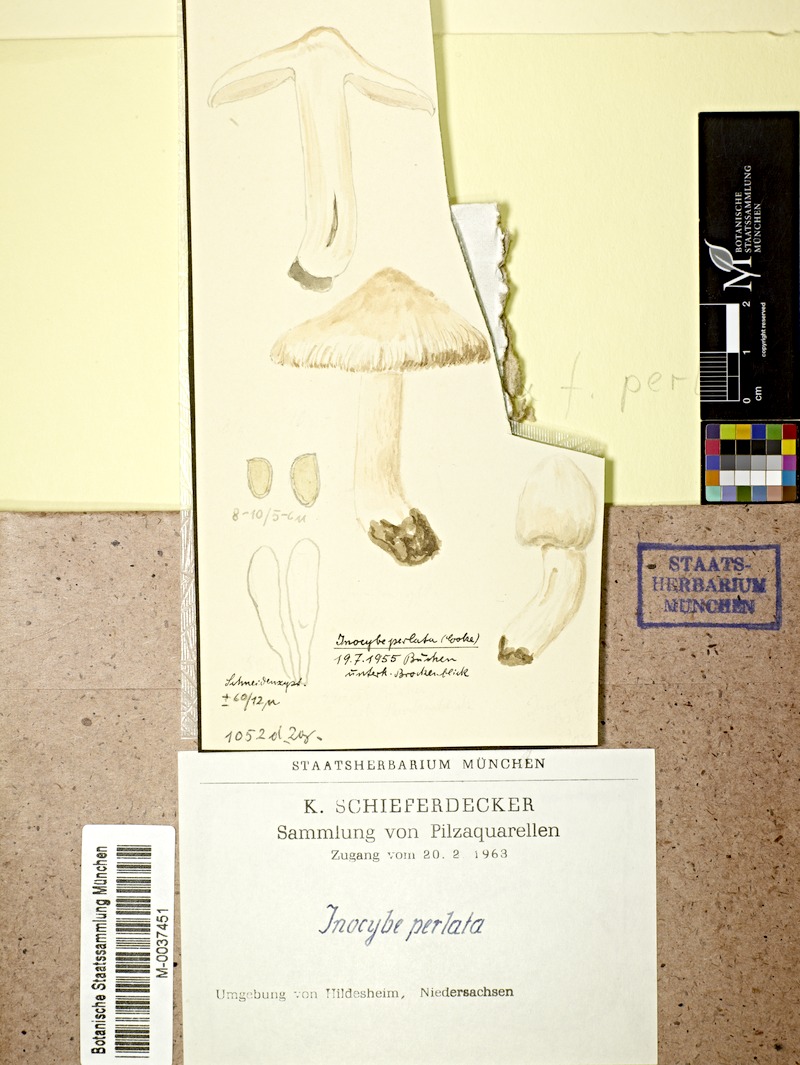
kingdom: Fungi
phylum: Basidiomycota
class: Agaricomycetes
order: Agaricales
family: Inocybaceae
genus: Pseudosperma
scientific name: Pseudosperma rimosum
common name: Split fibrecap
